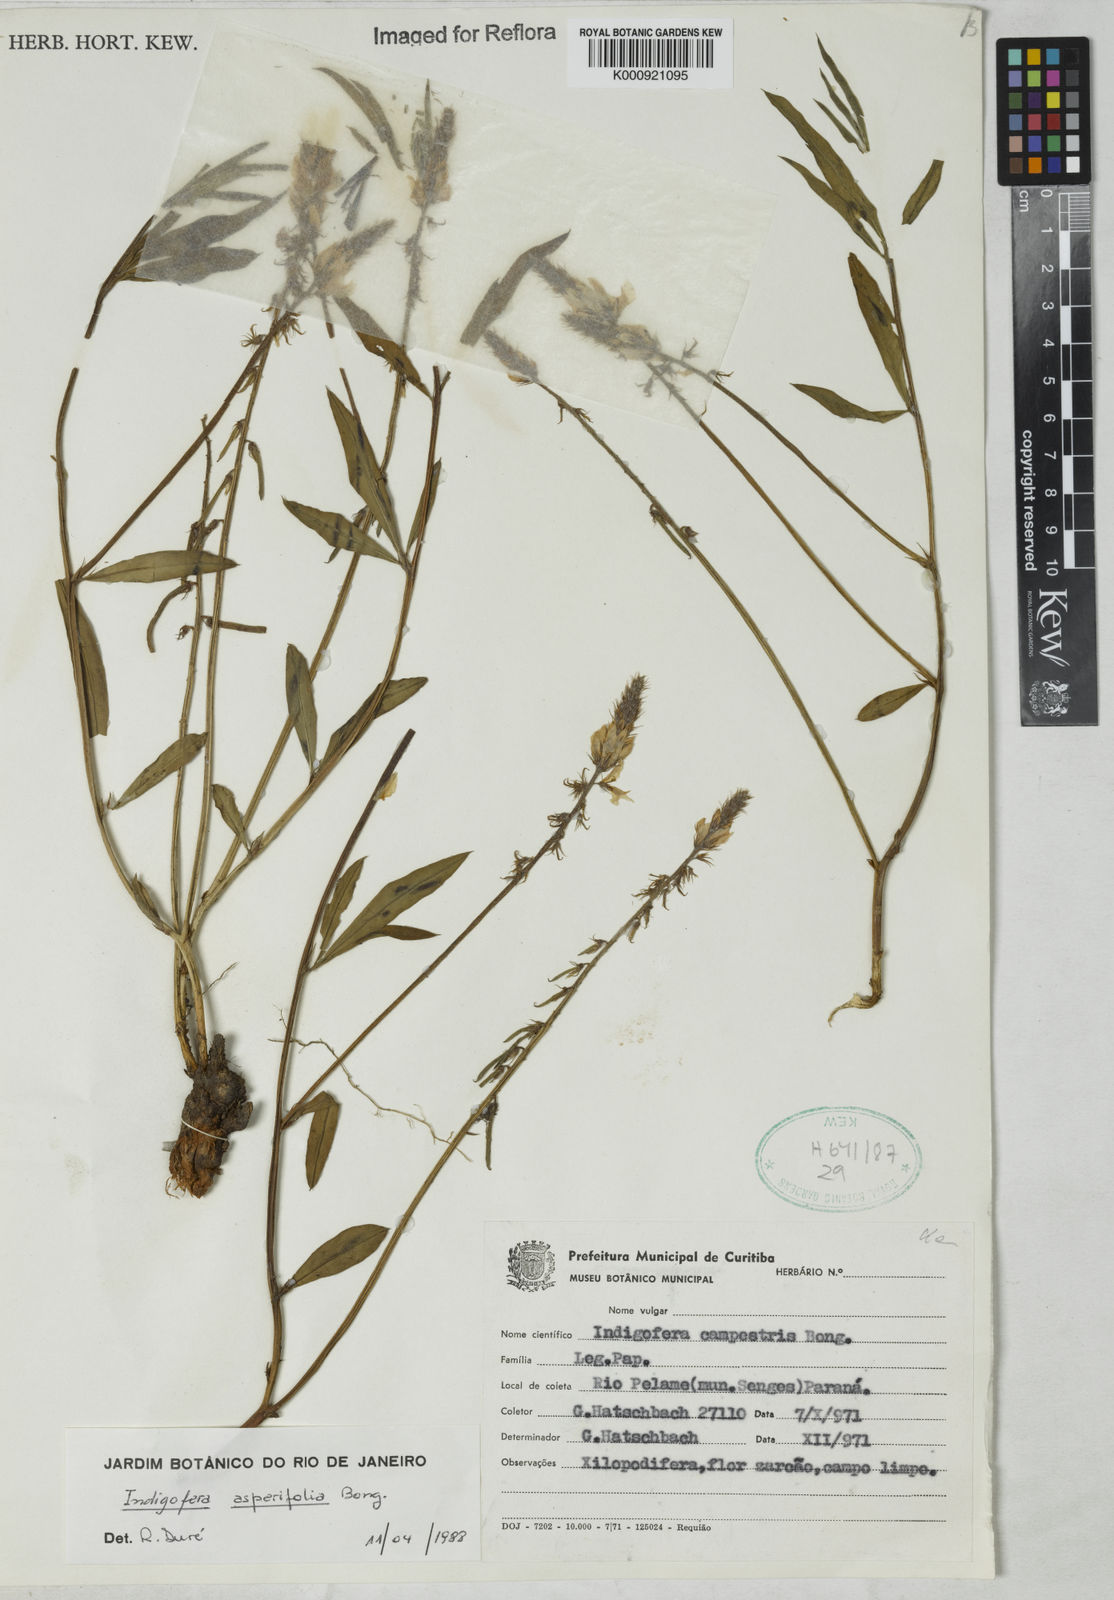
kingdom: Plantae
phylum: Tracheophyta
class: Magnoliopsida
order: Fabales
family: Fabaceae
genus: Indigofera
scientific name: Indigofera
